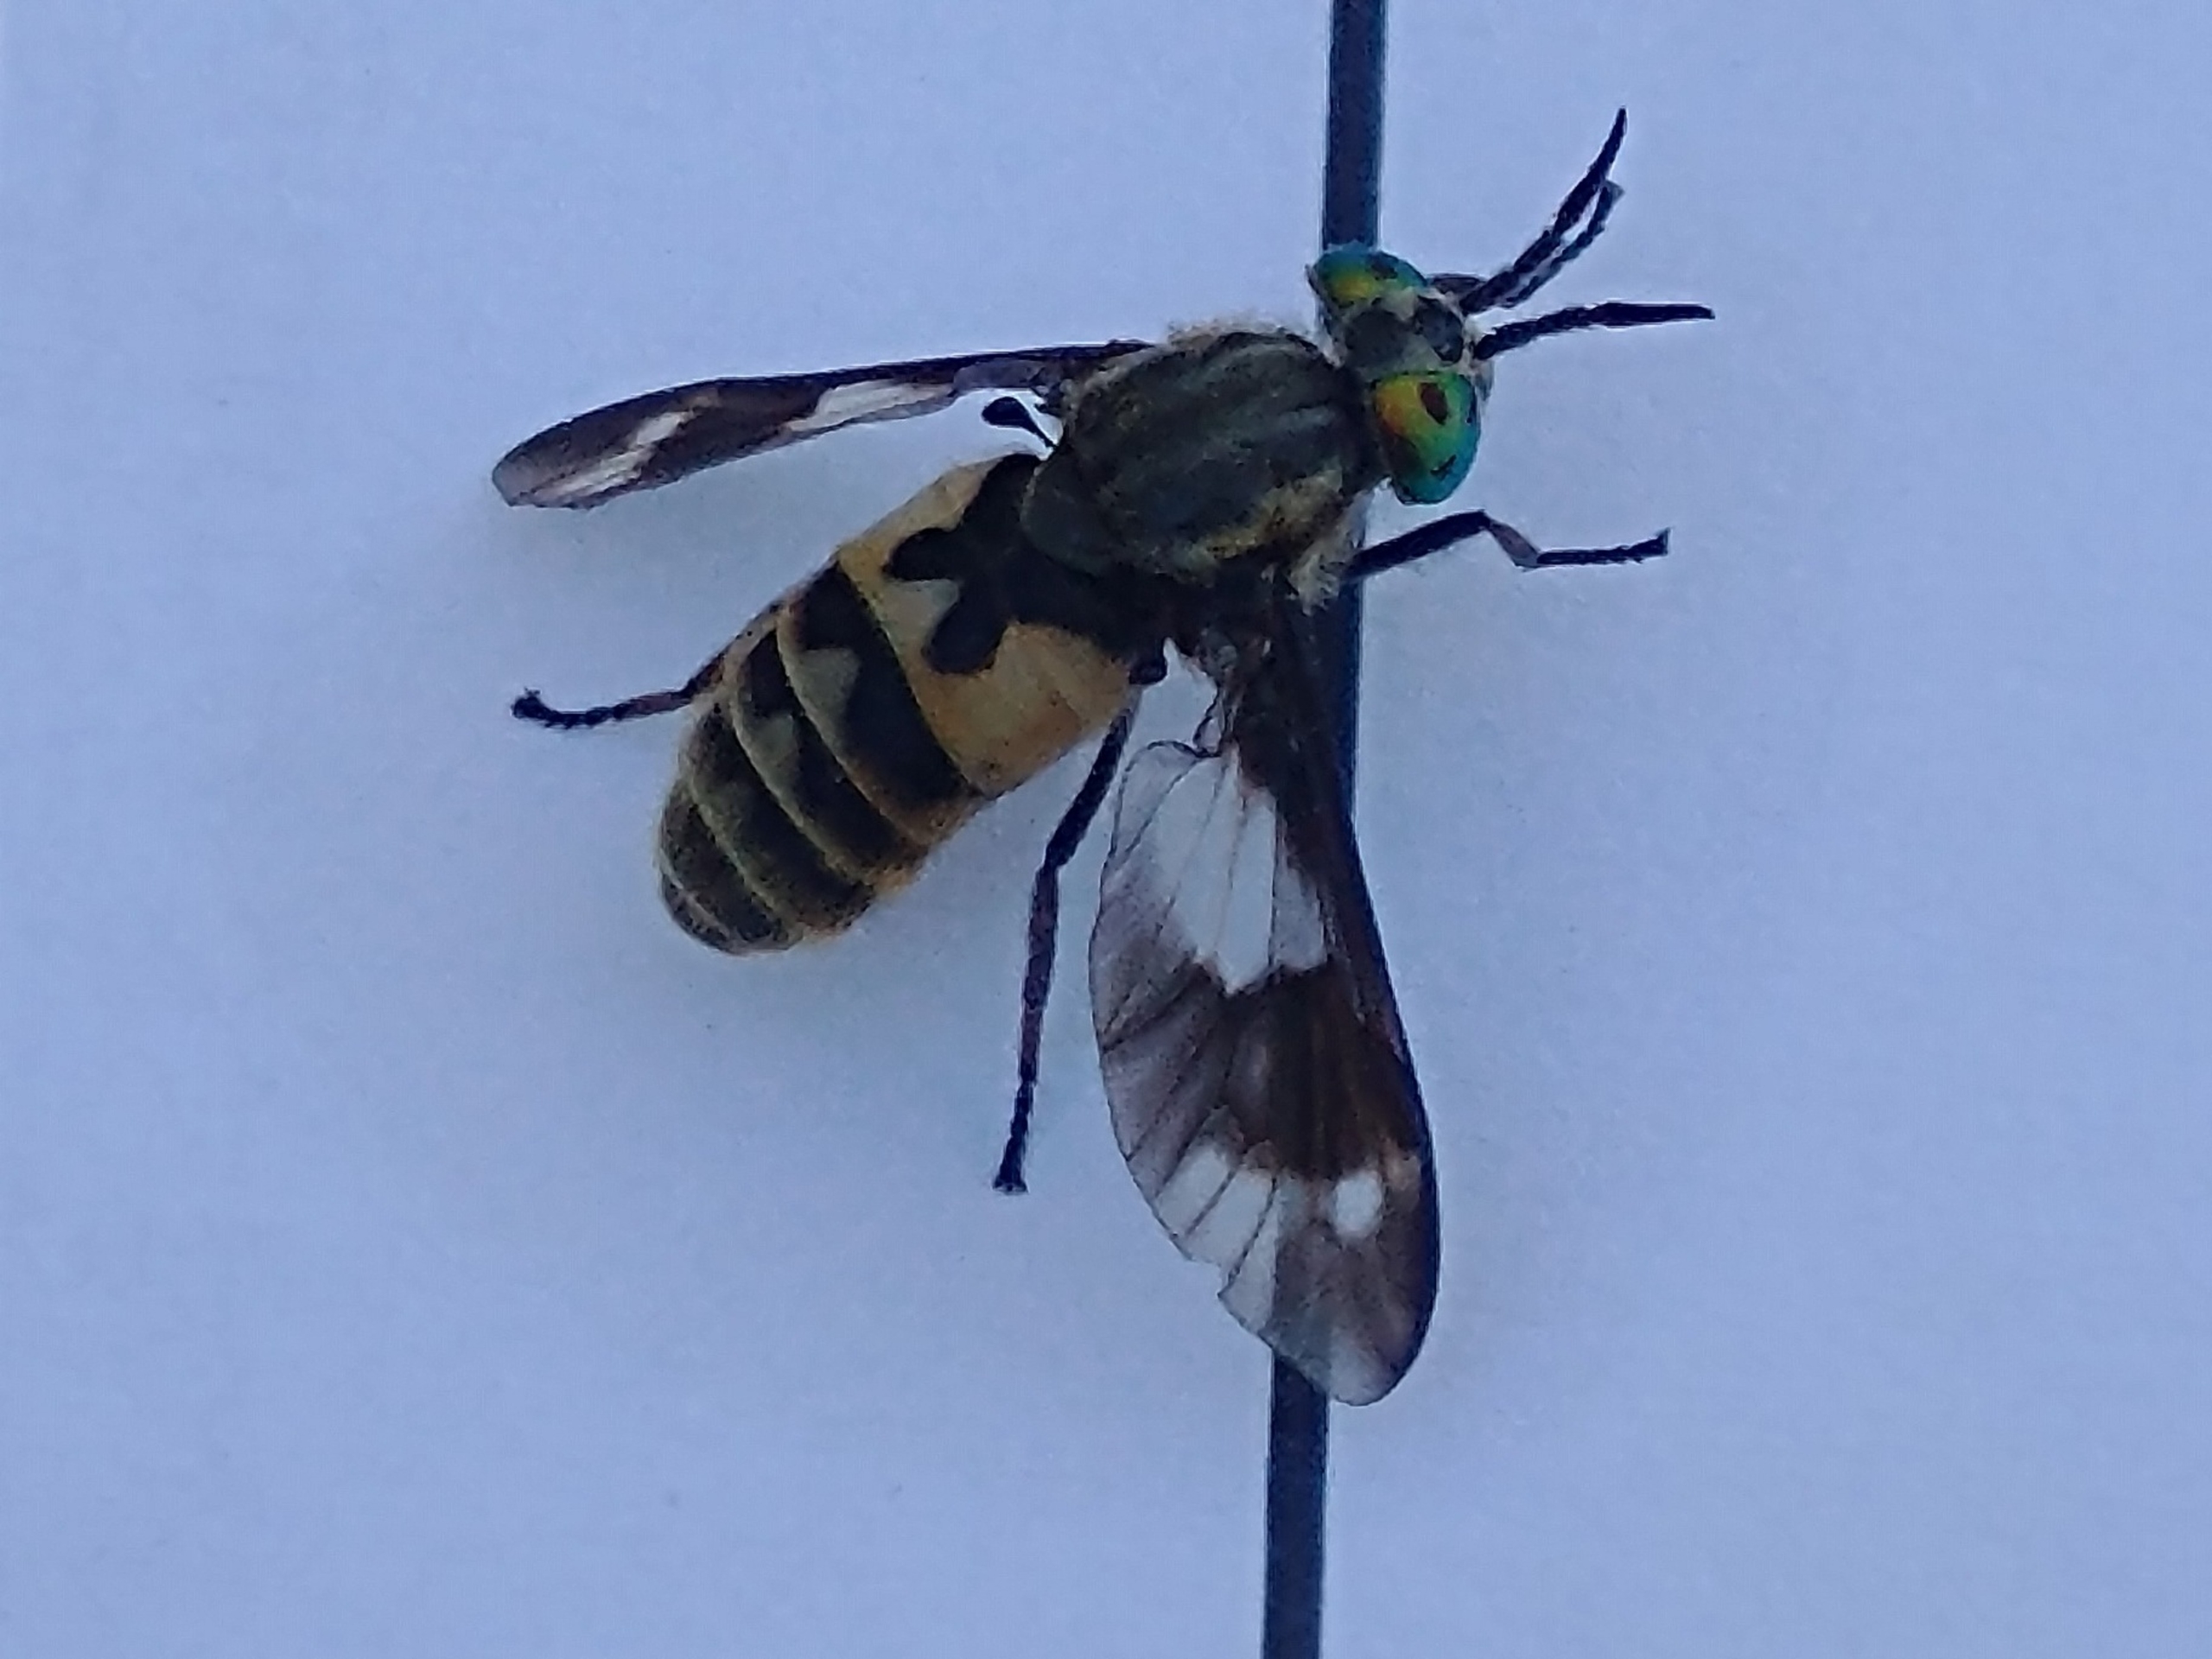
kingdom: Animalia
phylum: Arthropoda
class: Insecta
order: Diptera
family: Tabanidae
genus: Chrysops
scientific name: Chrysops relictus
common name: Guldklæg
